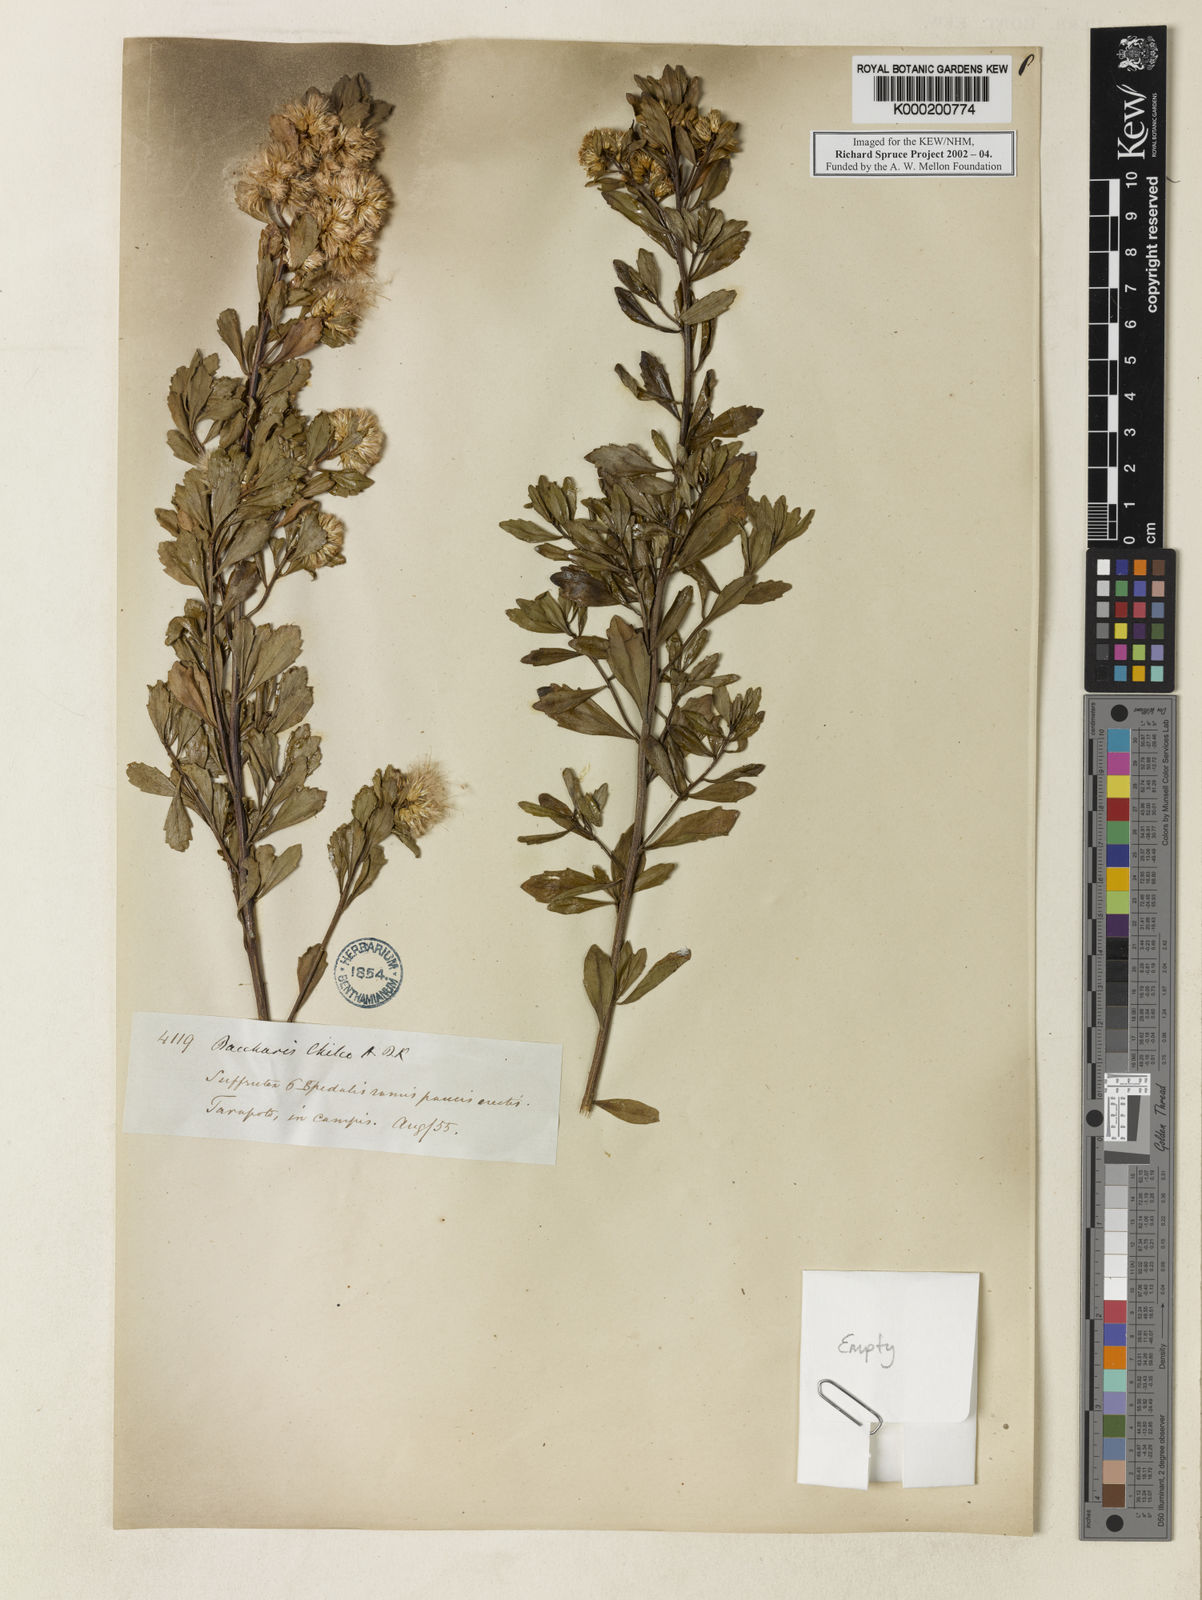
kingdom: Plantae
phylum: Tracheophyta
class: Magnoliopsida
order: Asterales
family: Asteraceae
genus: Baccharis
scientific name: Baccharis linearifolia
